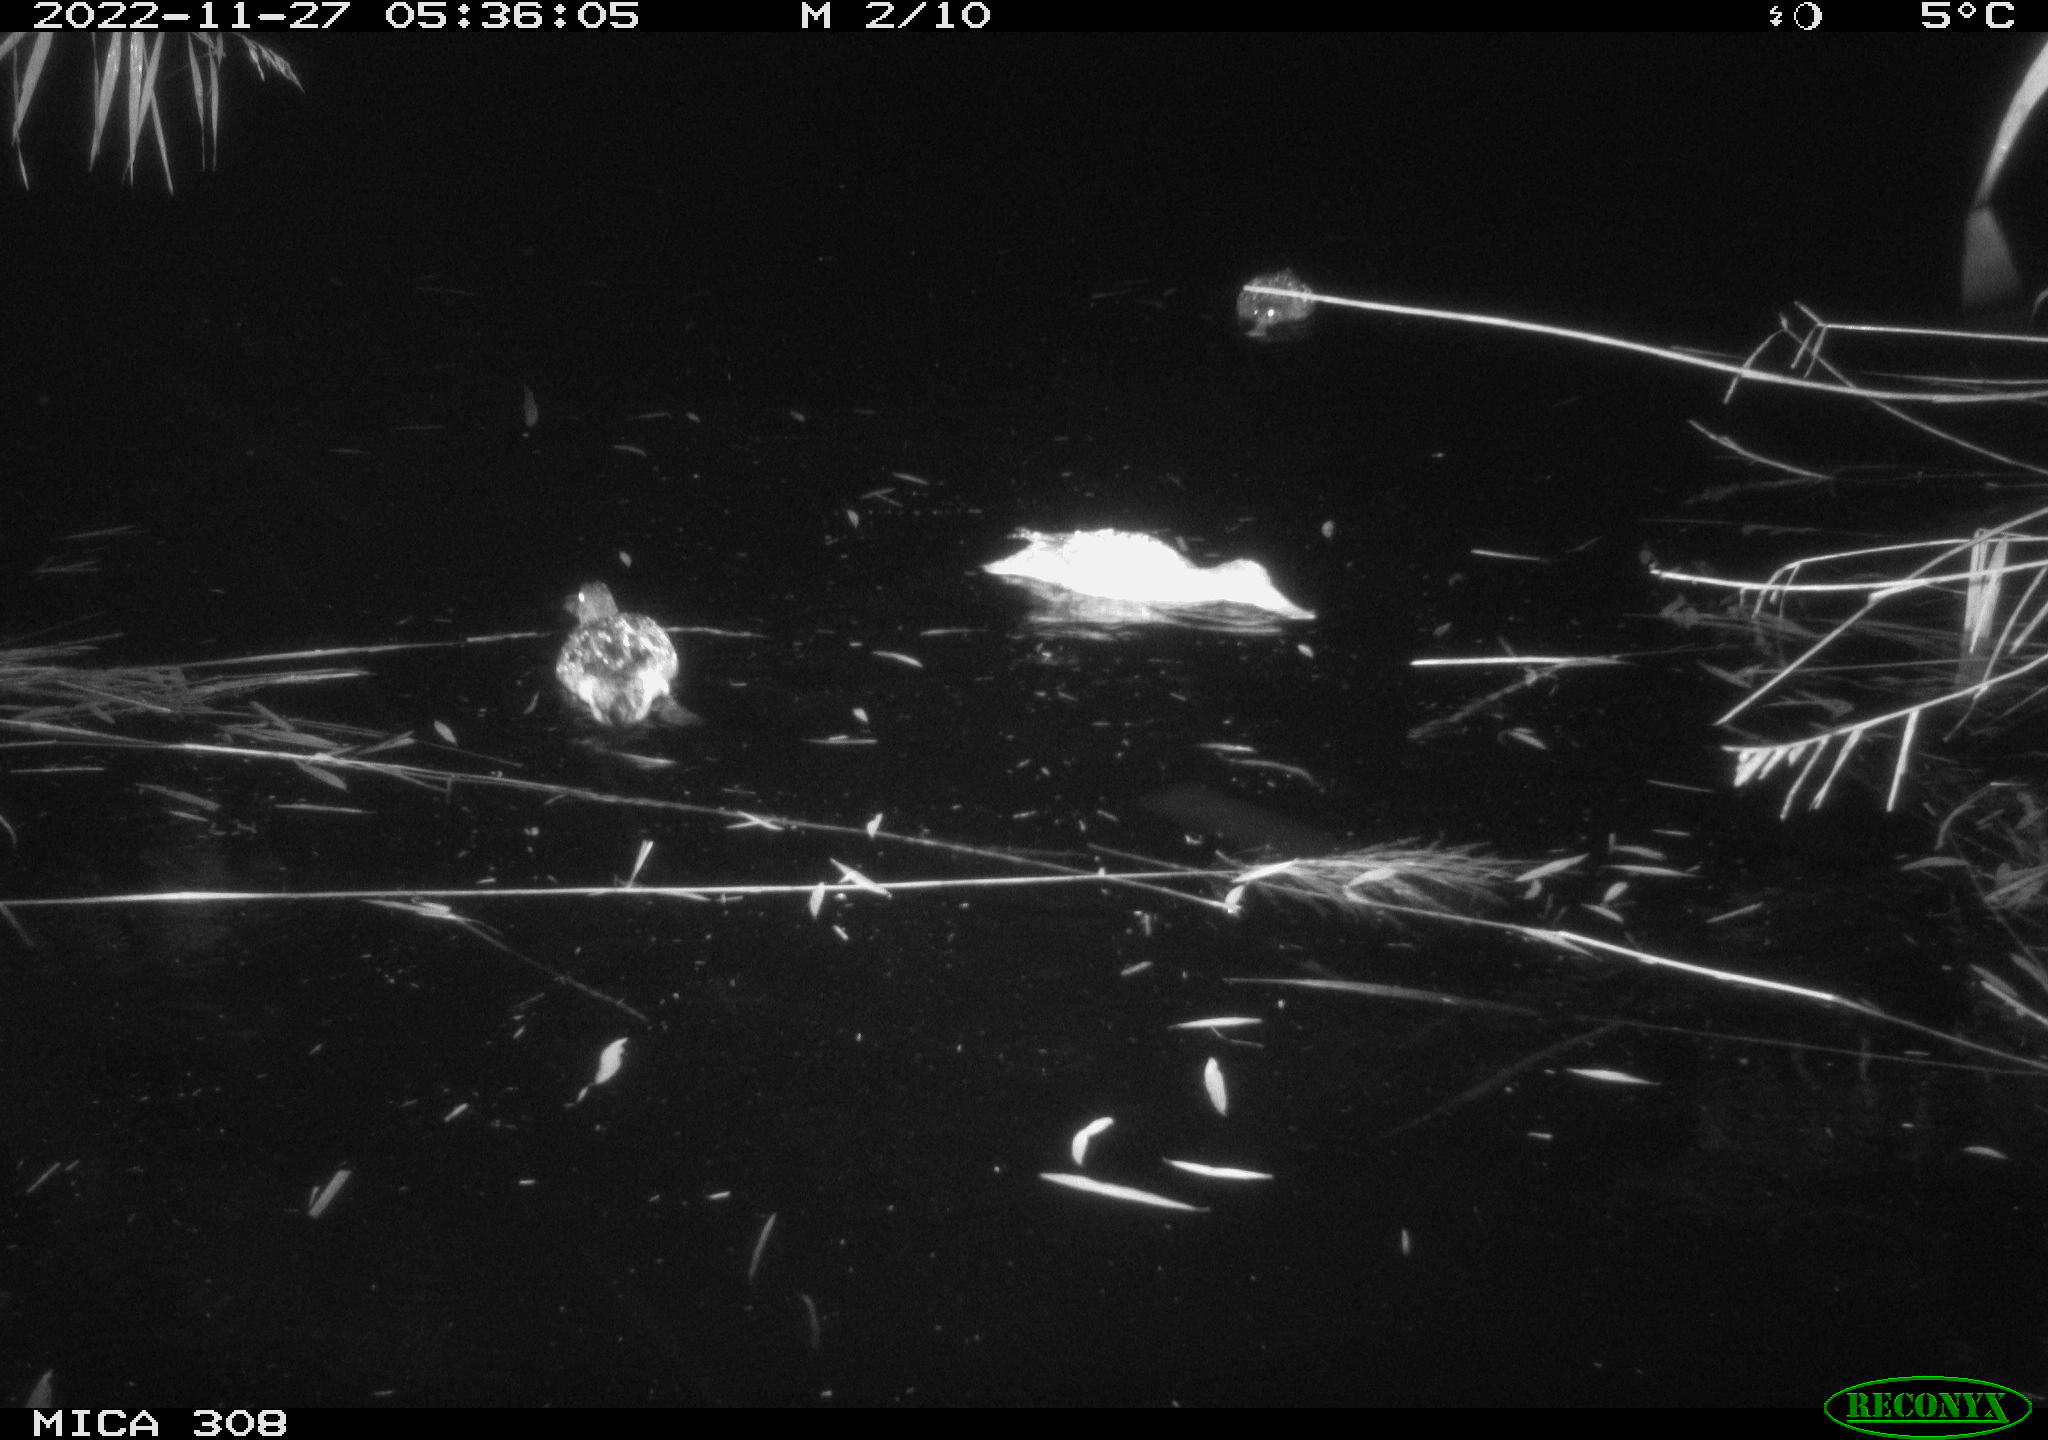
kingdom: Animalia
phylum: Chordata
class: Aves
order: Anseriformes
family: Anatidae
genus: Anas
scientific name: Anas
